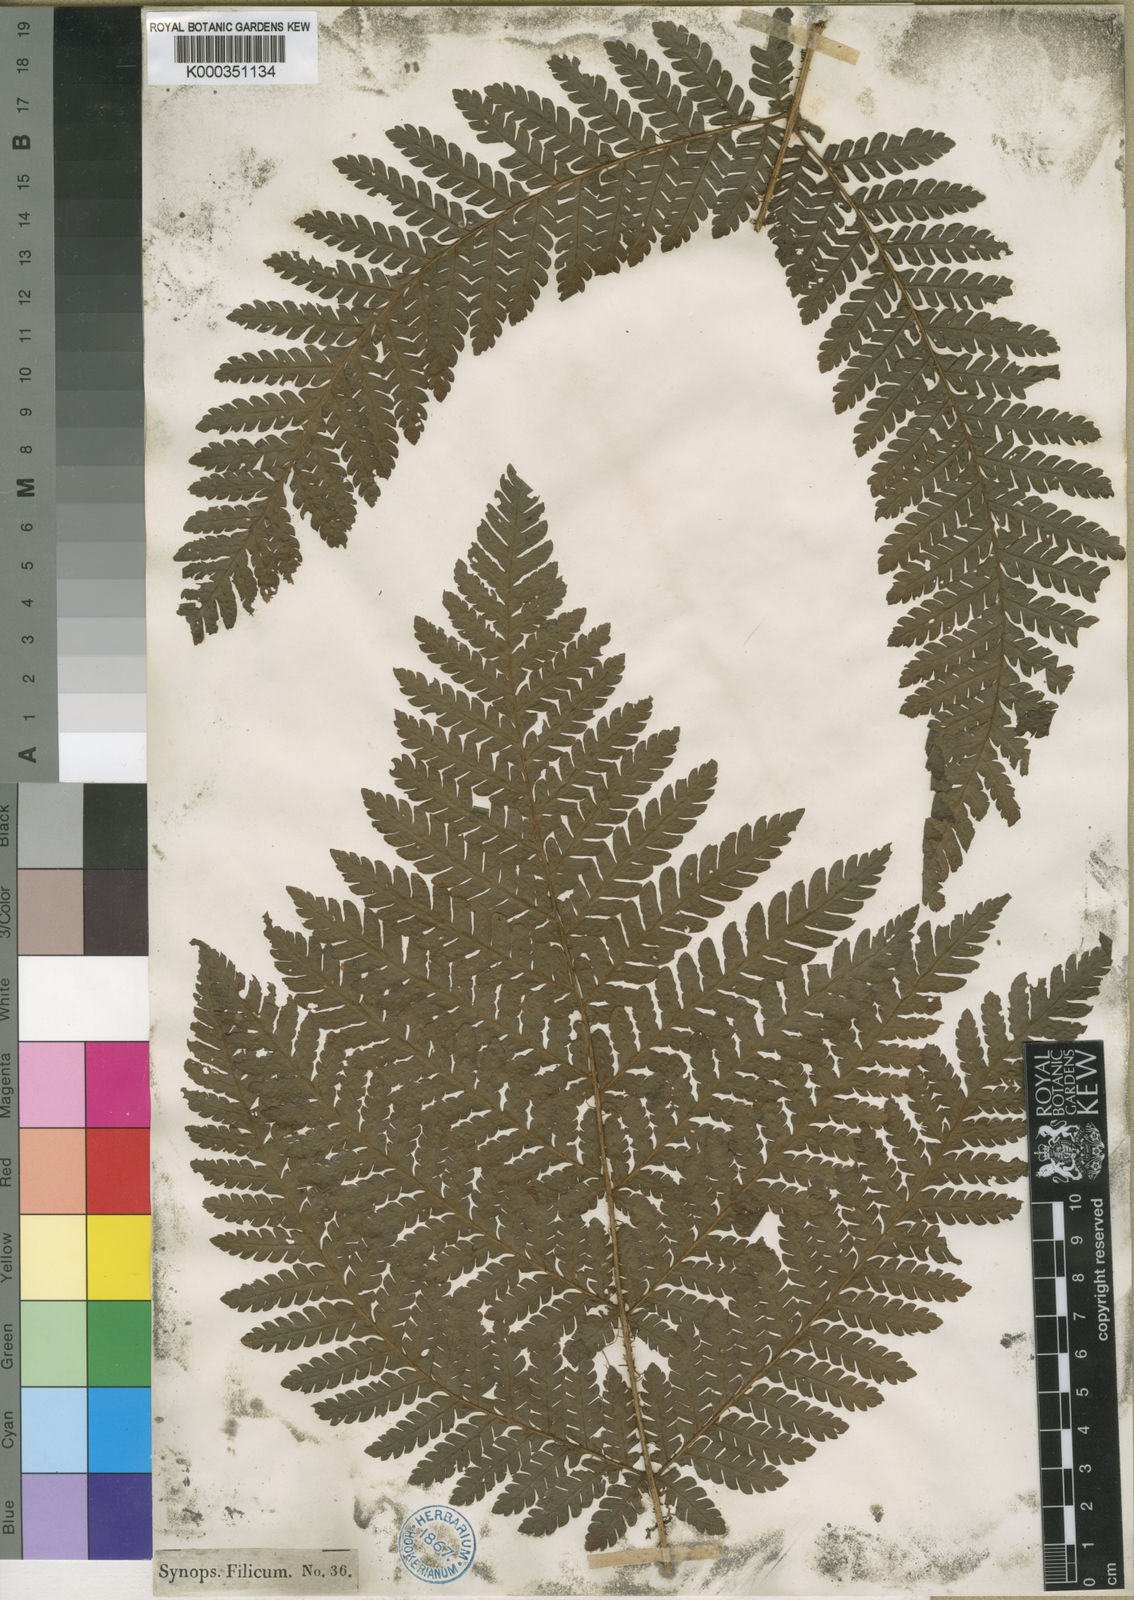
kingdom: Plantae
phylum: Tracheophyta
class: Polypodiopsida
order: Polypodiales
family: Dryopteridaceae
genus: Megalastrum
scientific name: Megalastrum oppositum
